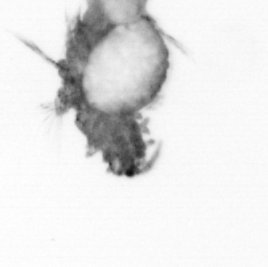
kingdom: Animalia
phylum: Annelida
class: Polychaeta
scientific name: Polychaeta
